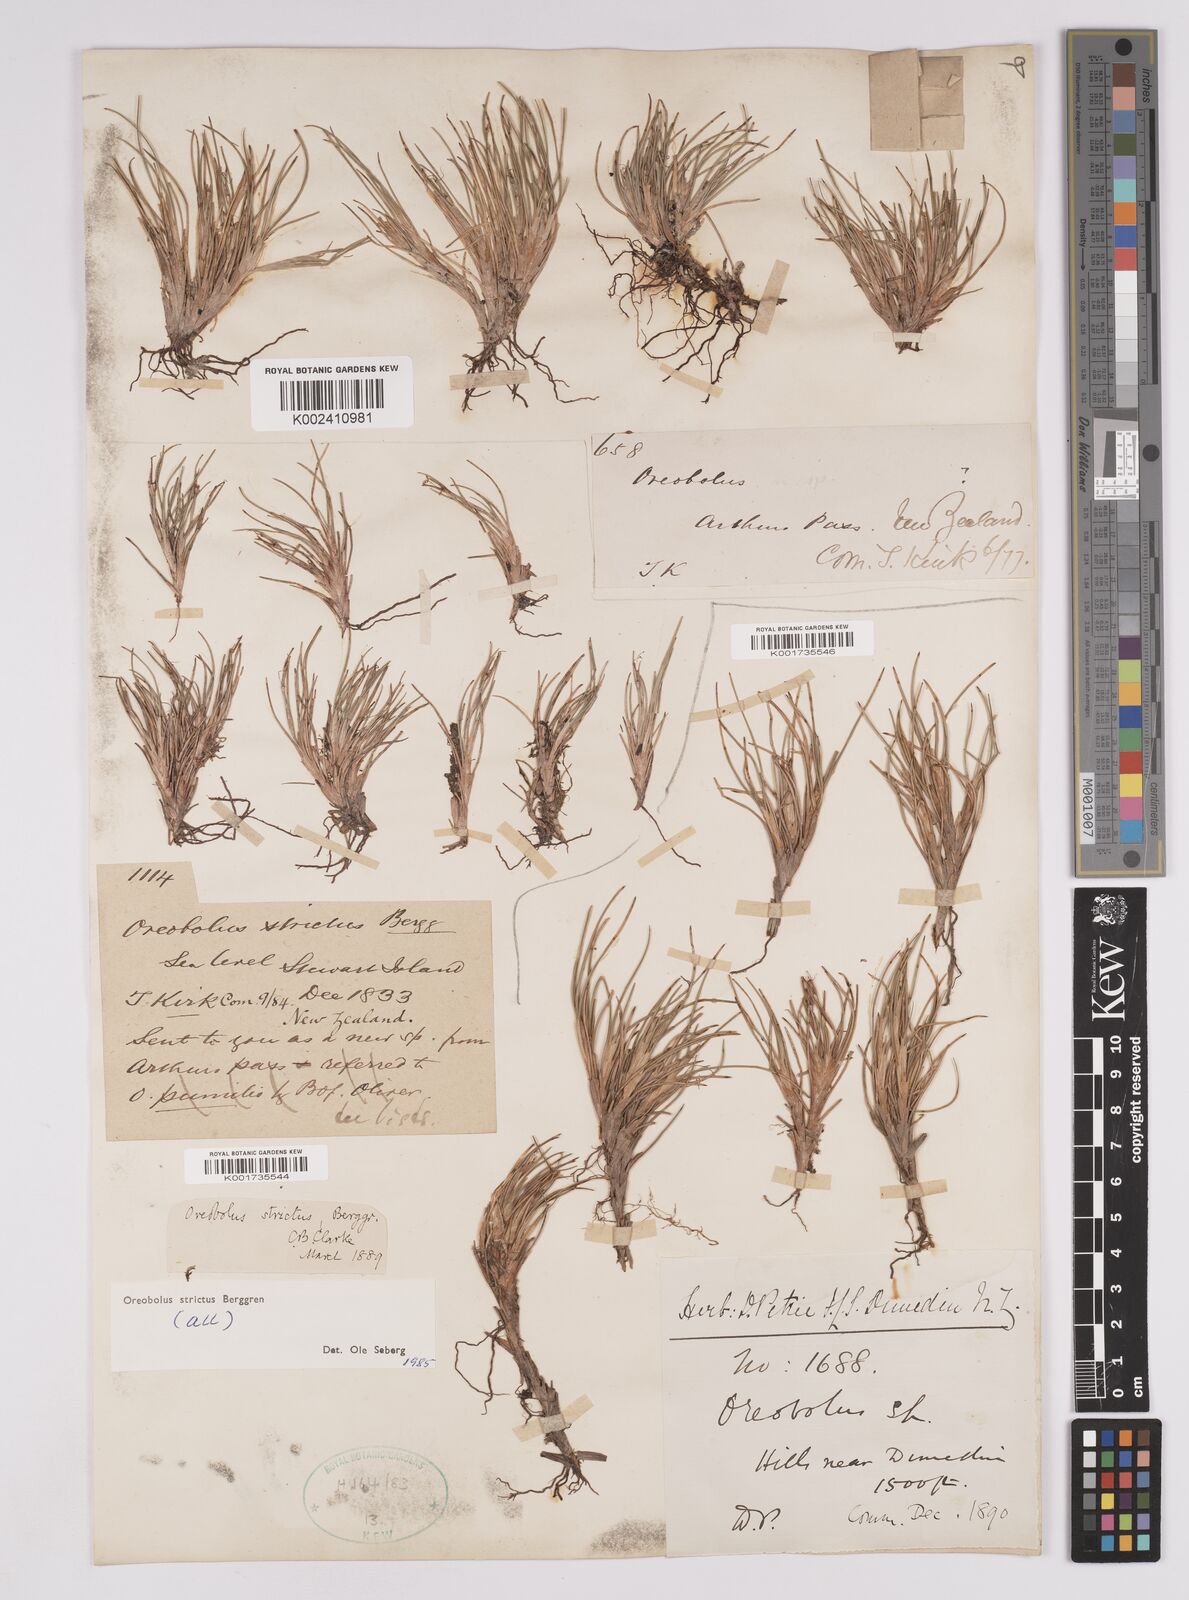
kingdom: Plantae
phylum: Tracheophyta
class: Liliopsida
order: Poales
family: Cyperaceae
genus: Oreobolus
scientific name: Oreobolus strictus
